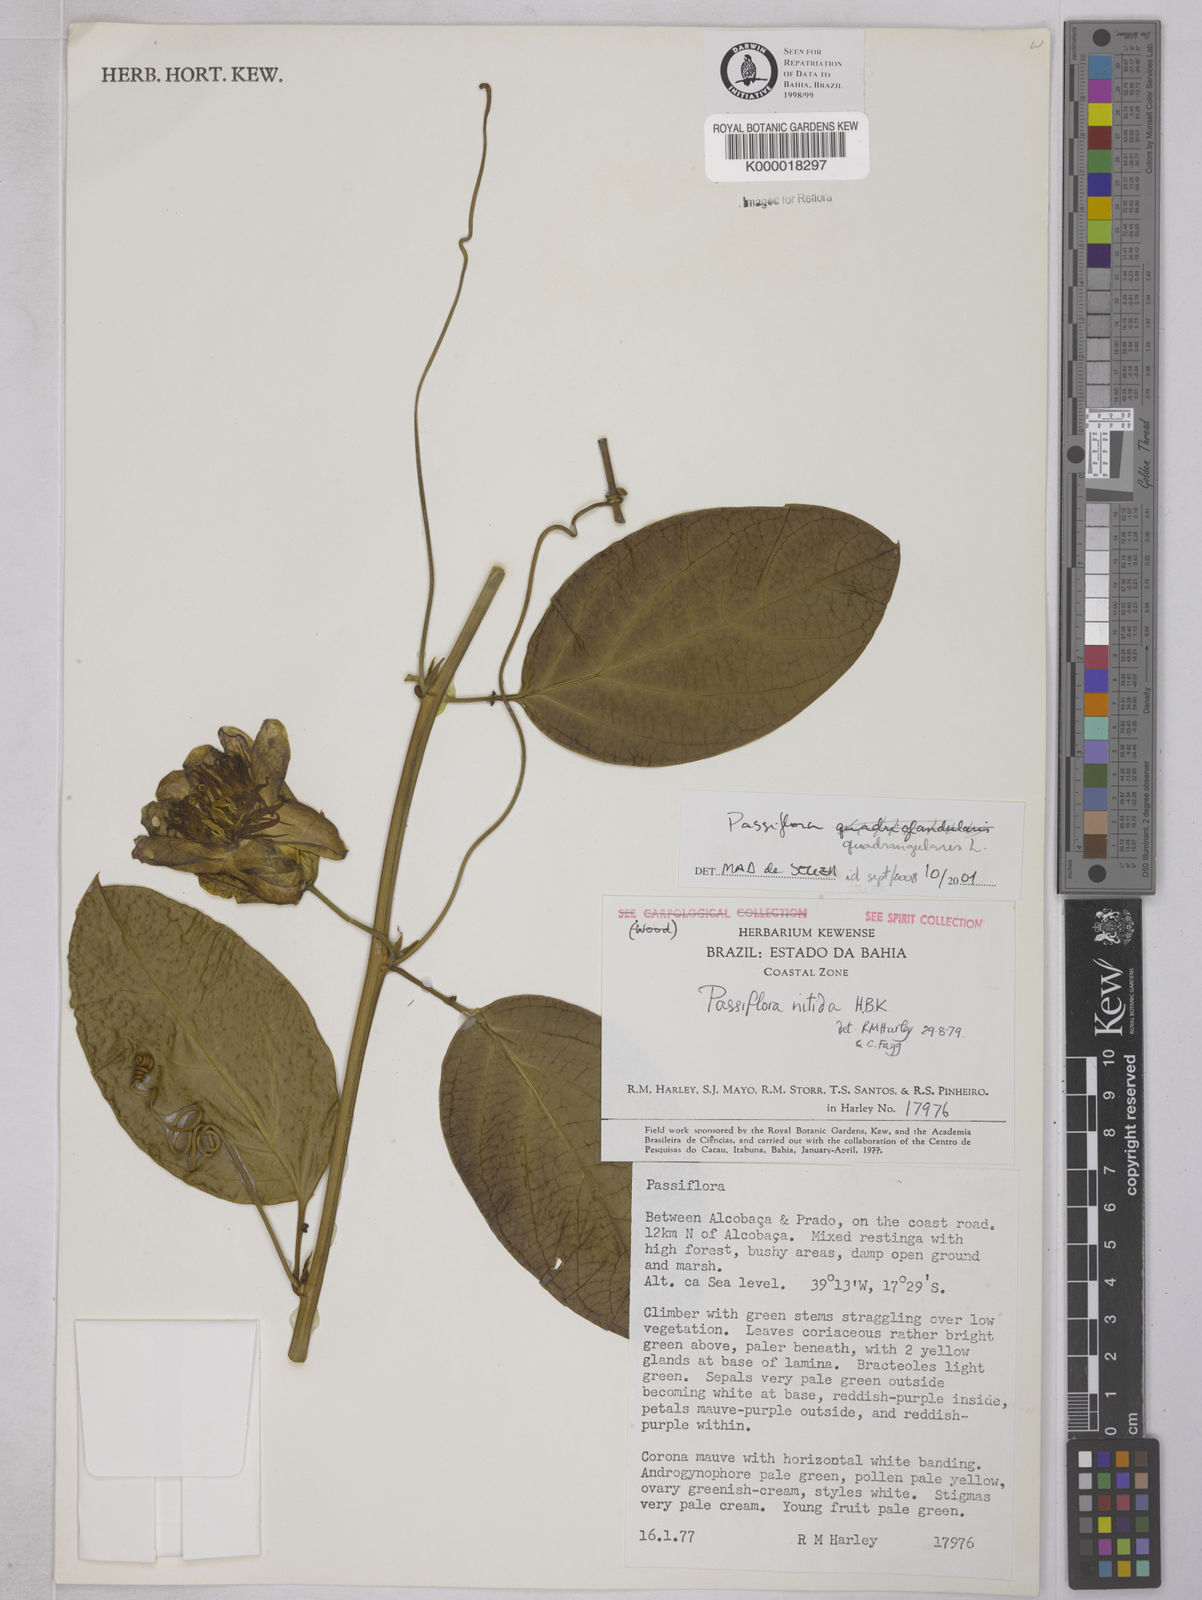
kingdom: Plantae
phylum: Tracheophyta
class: Magnoliopsida
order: Malpighiales
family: Passifloraceae
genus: Passiflora
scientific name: Passiflora nitida
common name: Bell-apple
